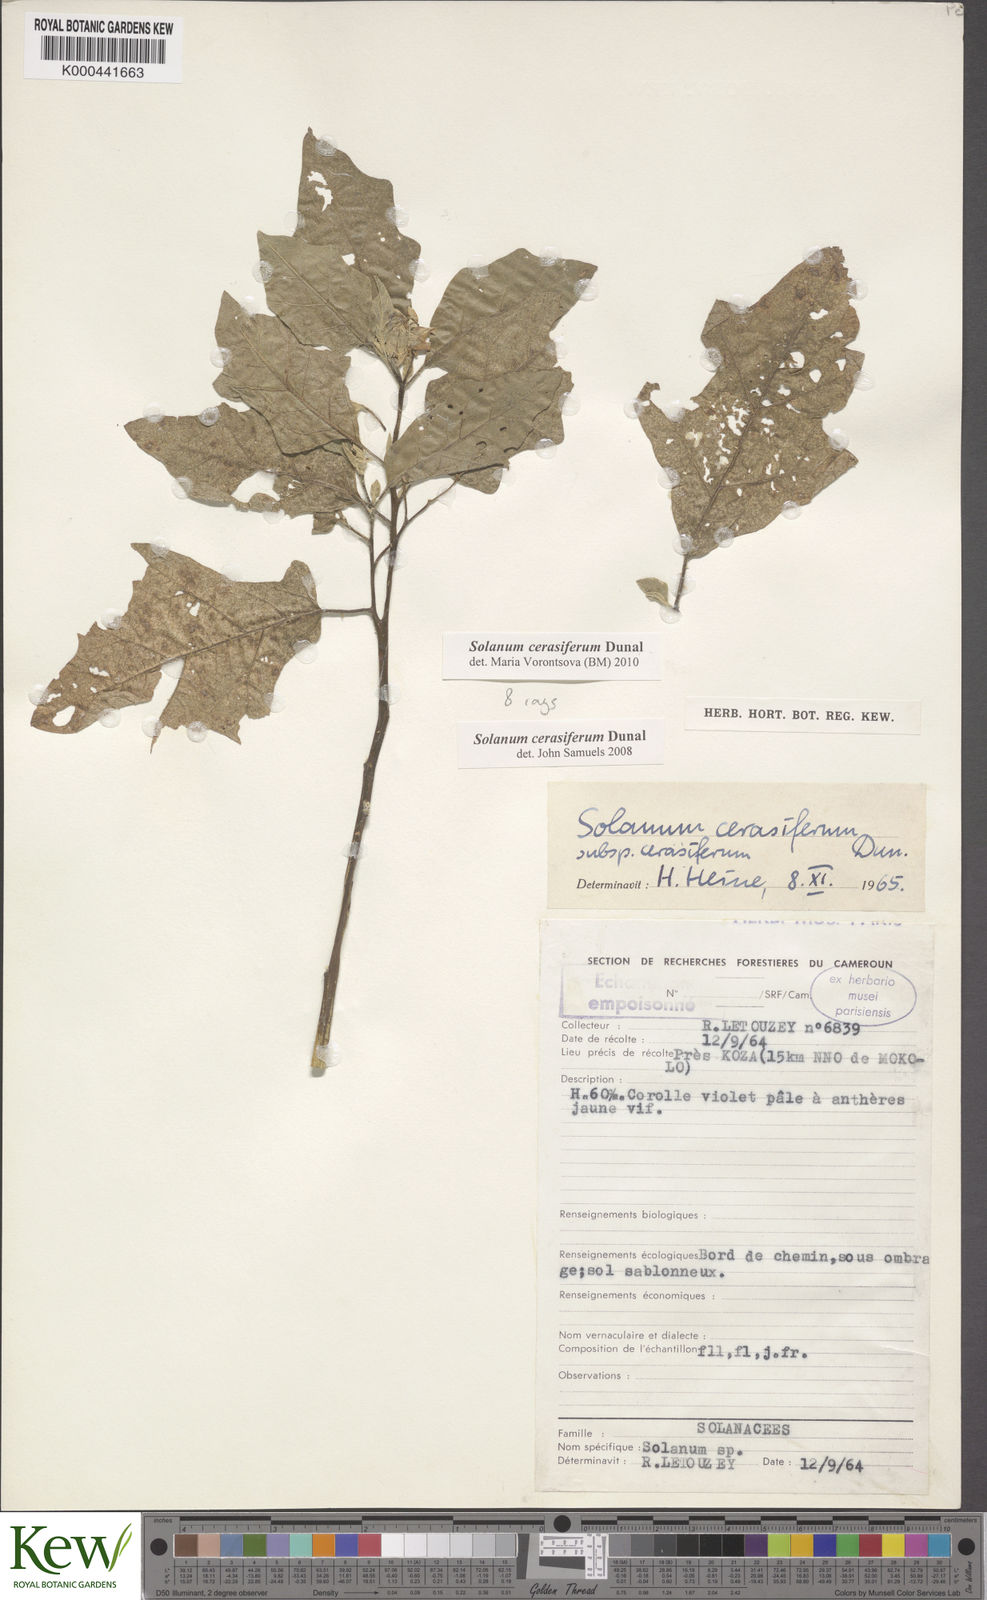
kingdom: Plantae
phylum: Tracheophyta
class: Magnoliopsida
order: Solanales
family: Solanaceae
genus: Solanum
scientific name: Solanum cerasiferum
